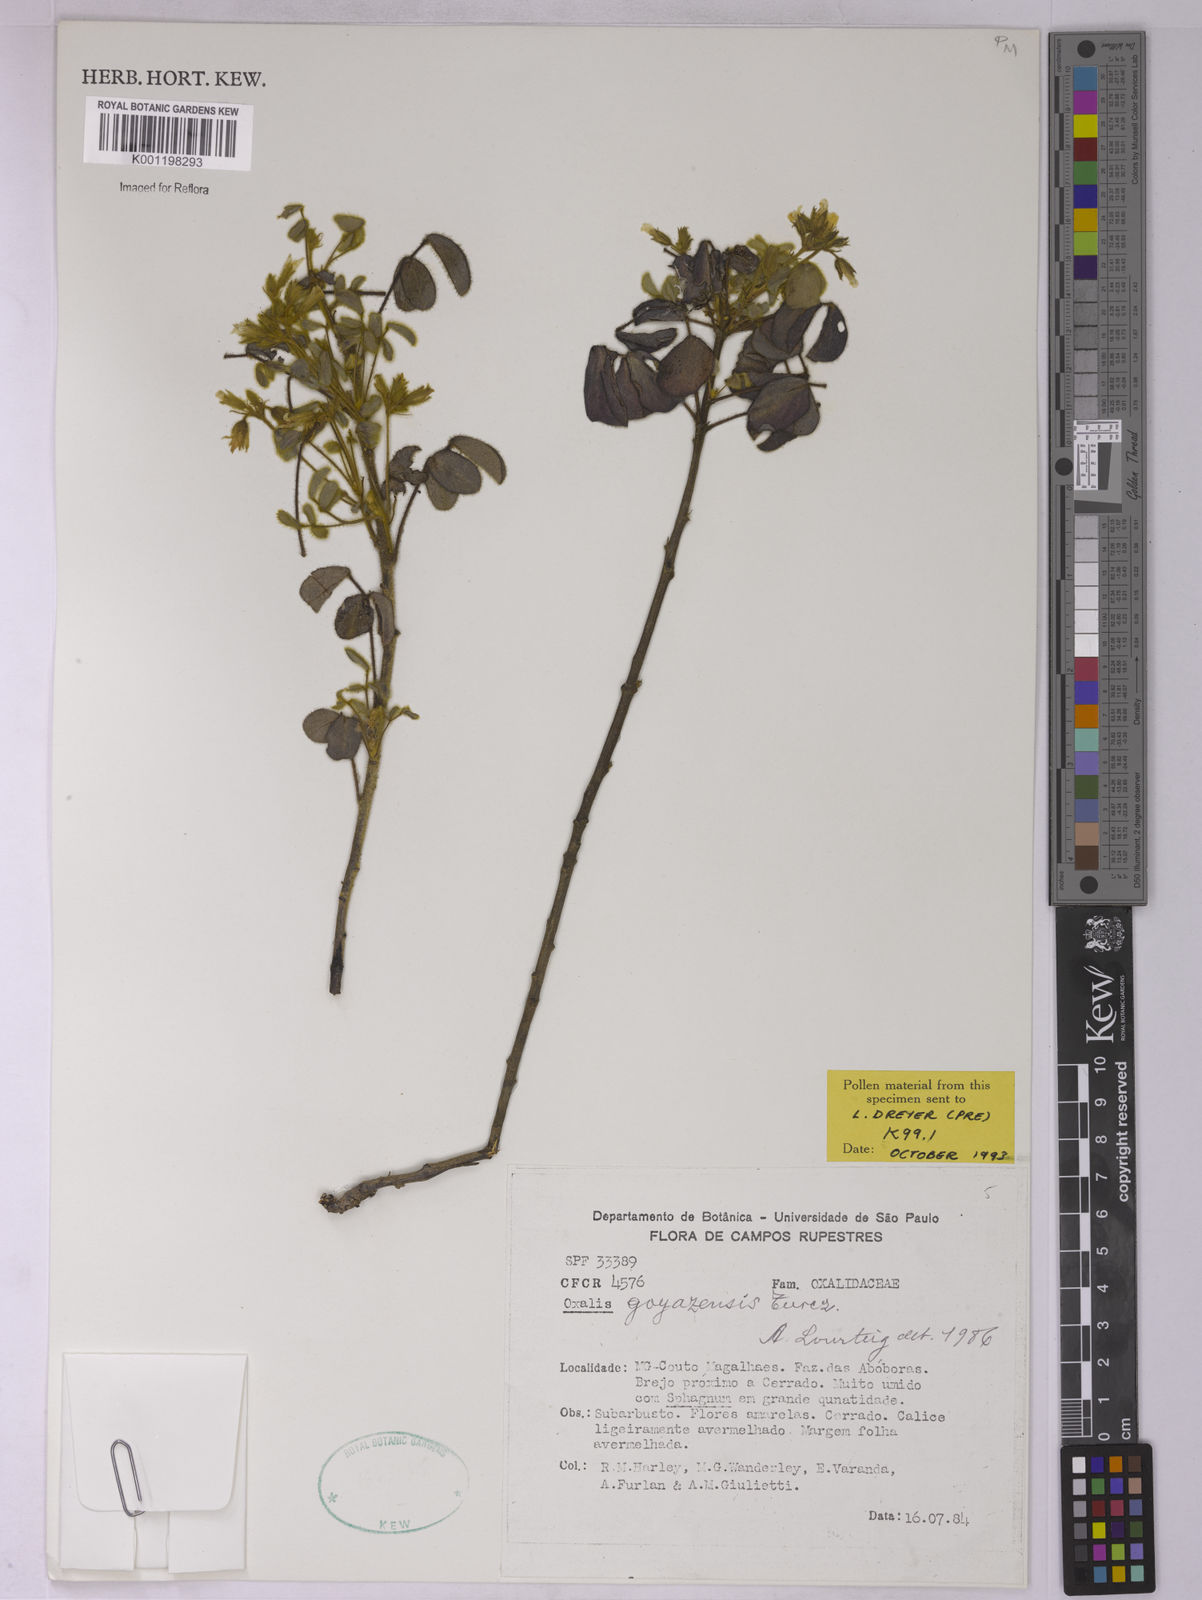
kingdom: Plantae
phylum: Tracheophyta
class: Magnoliopsida
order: Oxalidales
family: Oxalidaceae
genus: Oxalis
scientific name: Oxalis goyazensis
